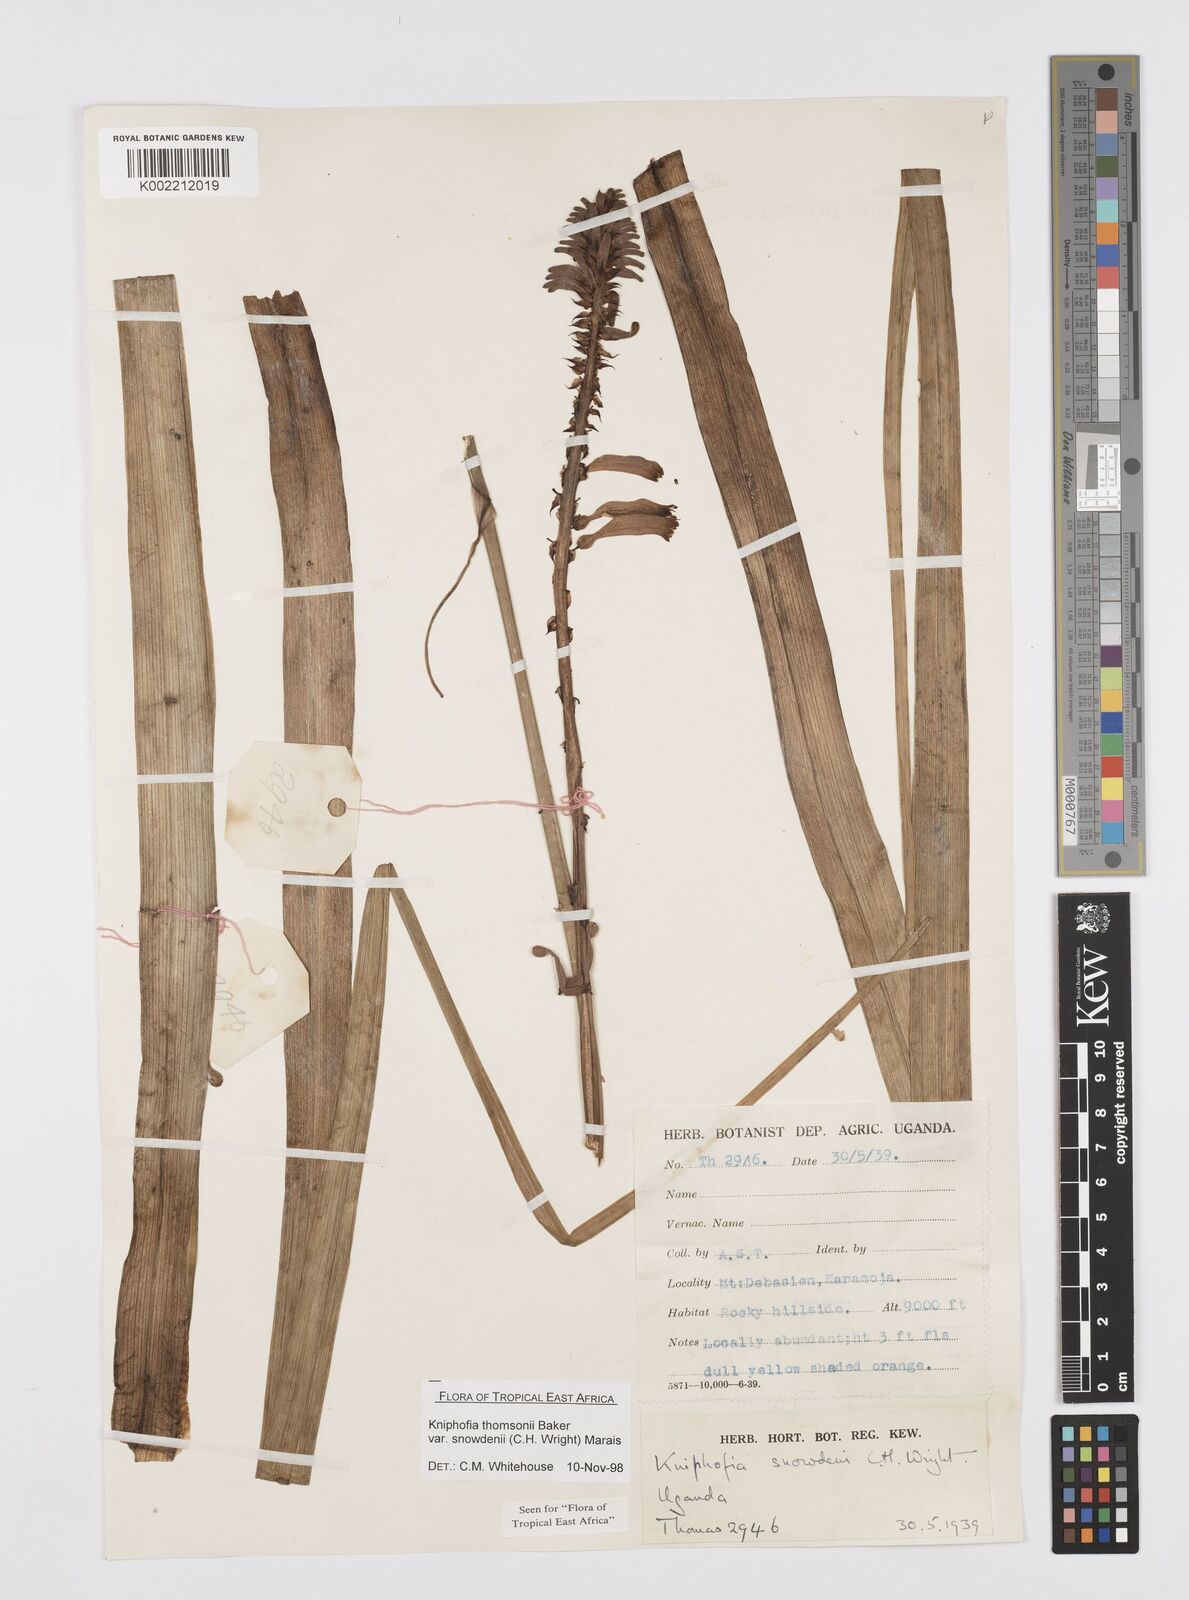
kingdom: Plantae
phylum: Tracheophyta
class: Liliopsida
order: Asparagales
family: Asphodelaceae
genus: Kniphofia
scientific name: Kniphofia thomsonii
